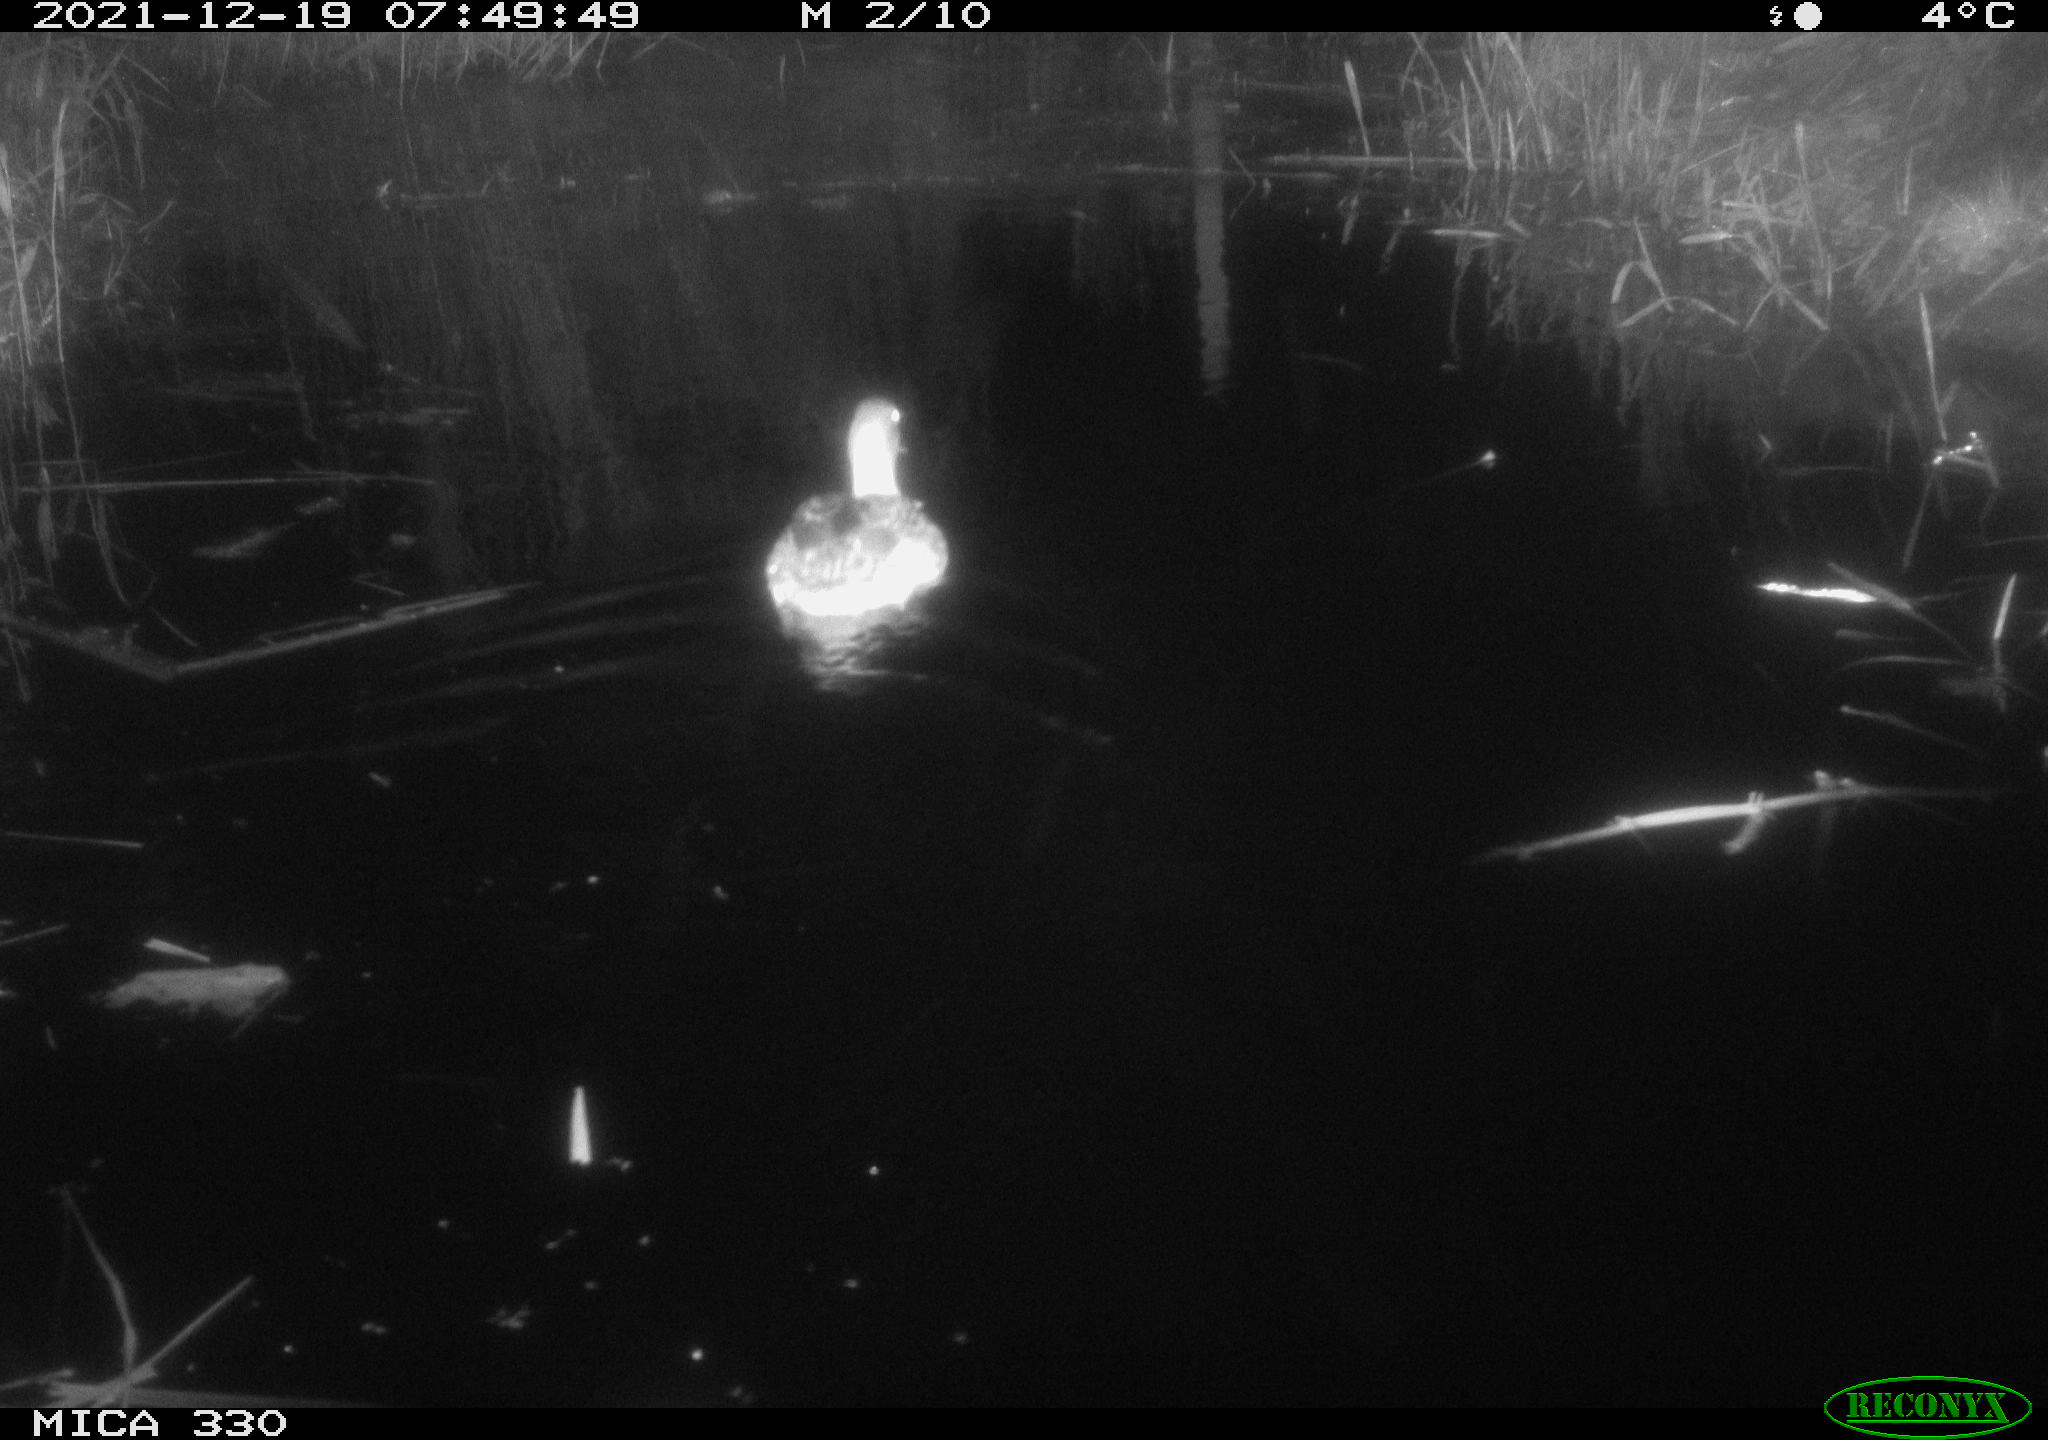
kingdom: Animalia
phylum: Chordata
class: Aves
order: Anseriformes
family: Anatidae
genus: Anas
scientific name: Anas platyrhynchos
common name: Mallard
